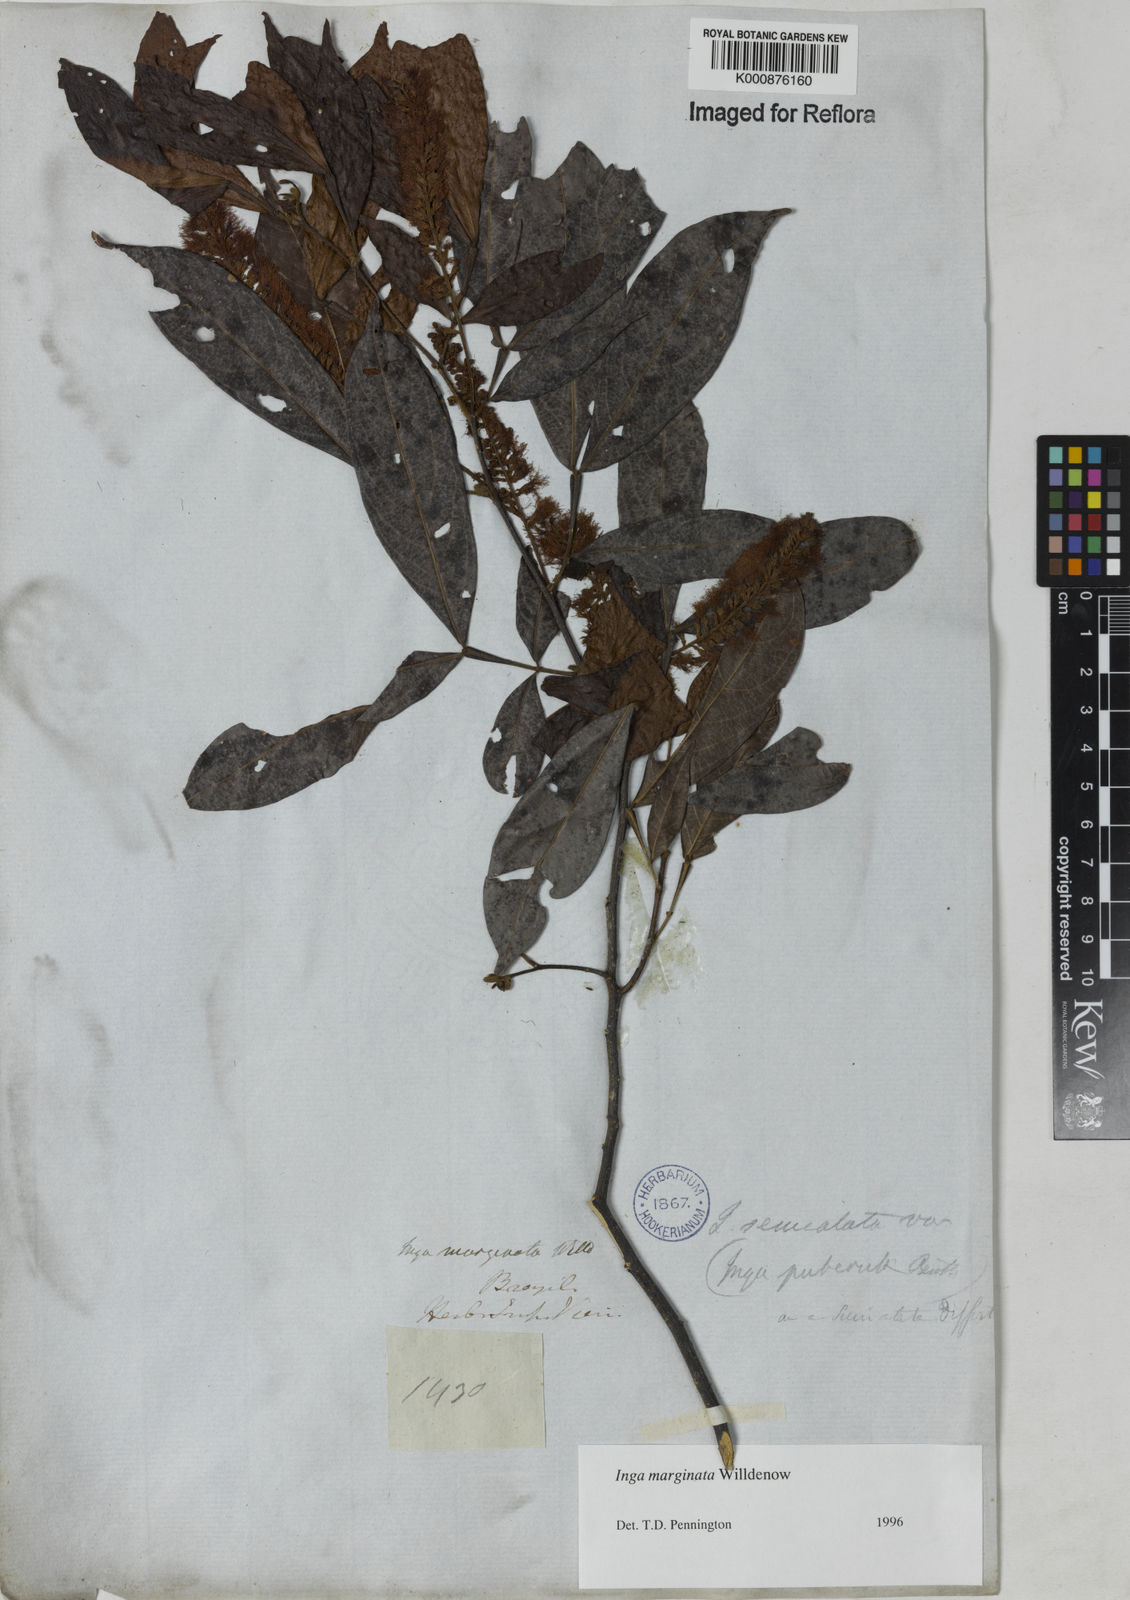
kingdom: Plantae
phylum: Tracheophyta
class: Magnoliopsida
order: Fabales
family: Fabaceae
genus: Inga
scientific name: Inga marginata
